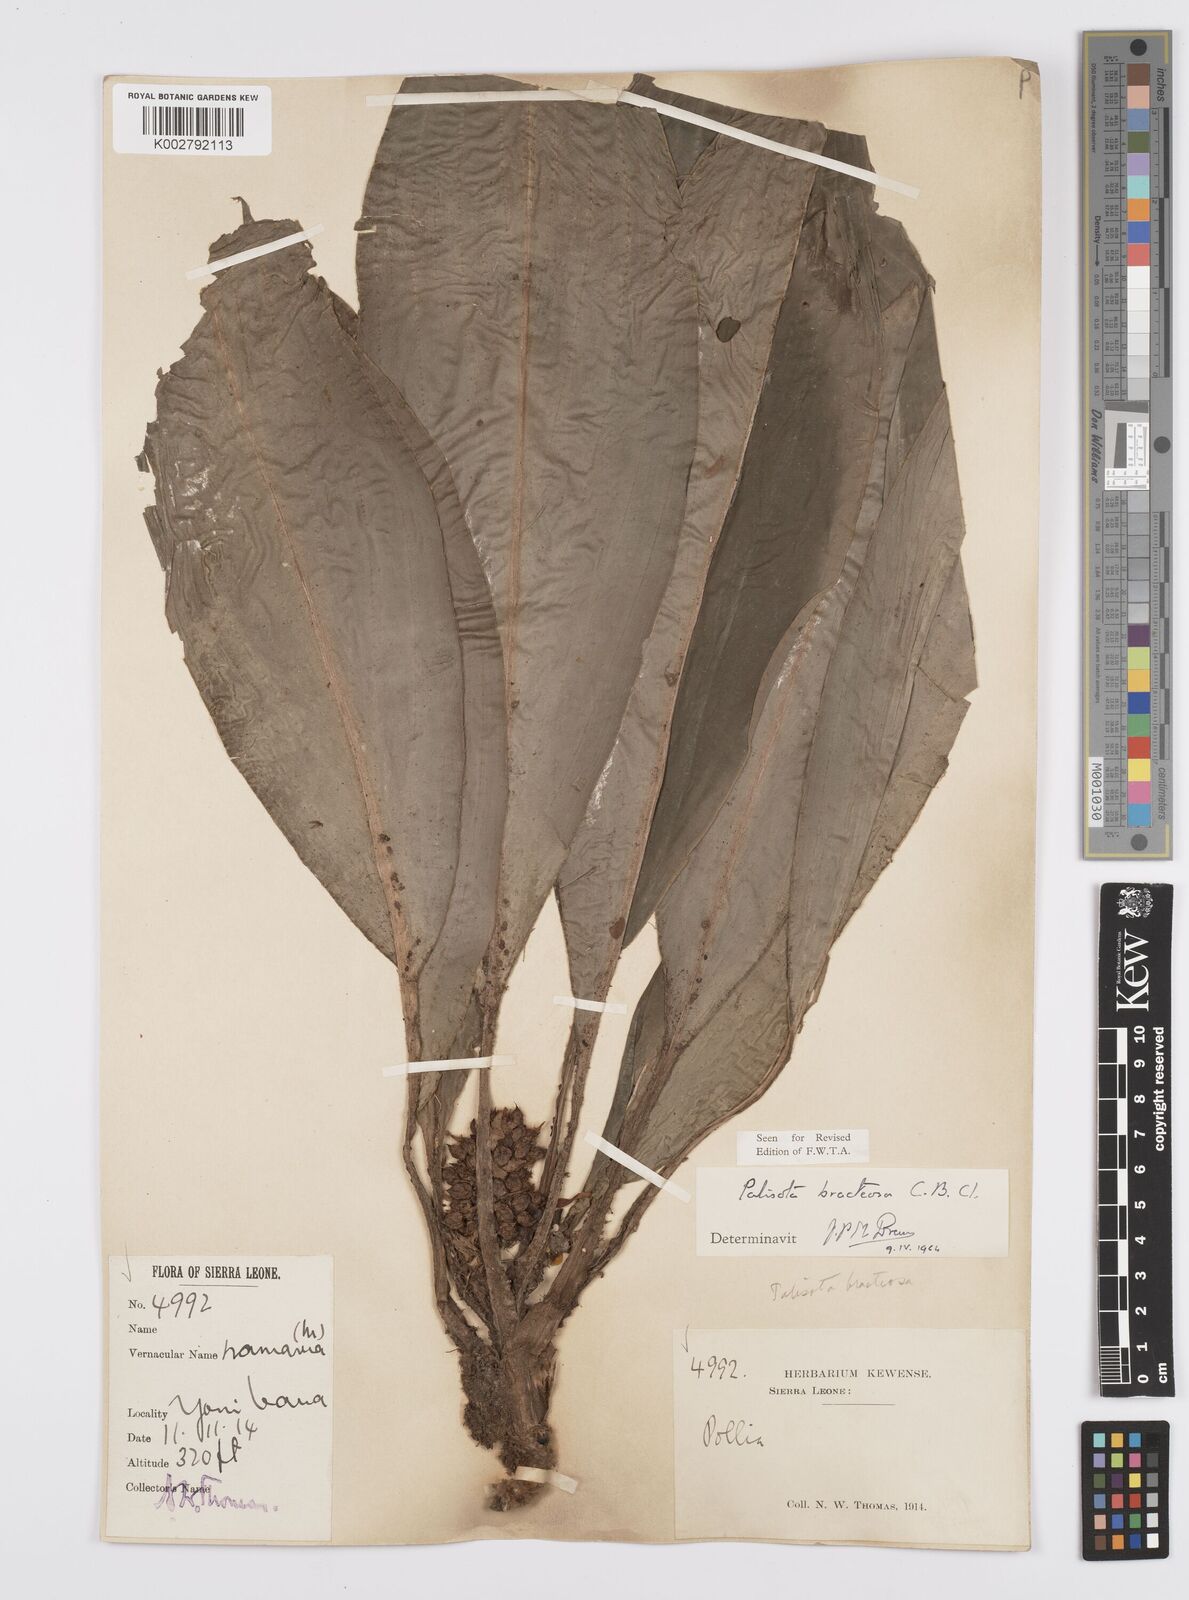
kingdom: Plantae
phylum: Tracheophyta
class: Liliopsida
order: Commelinales
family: Commelinaceae
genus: Palisota
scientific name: Palisota bracteosa
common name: Palisota
